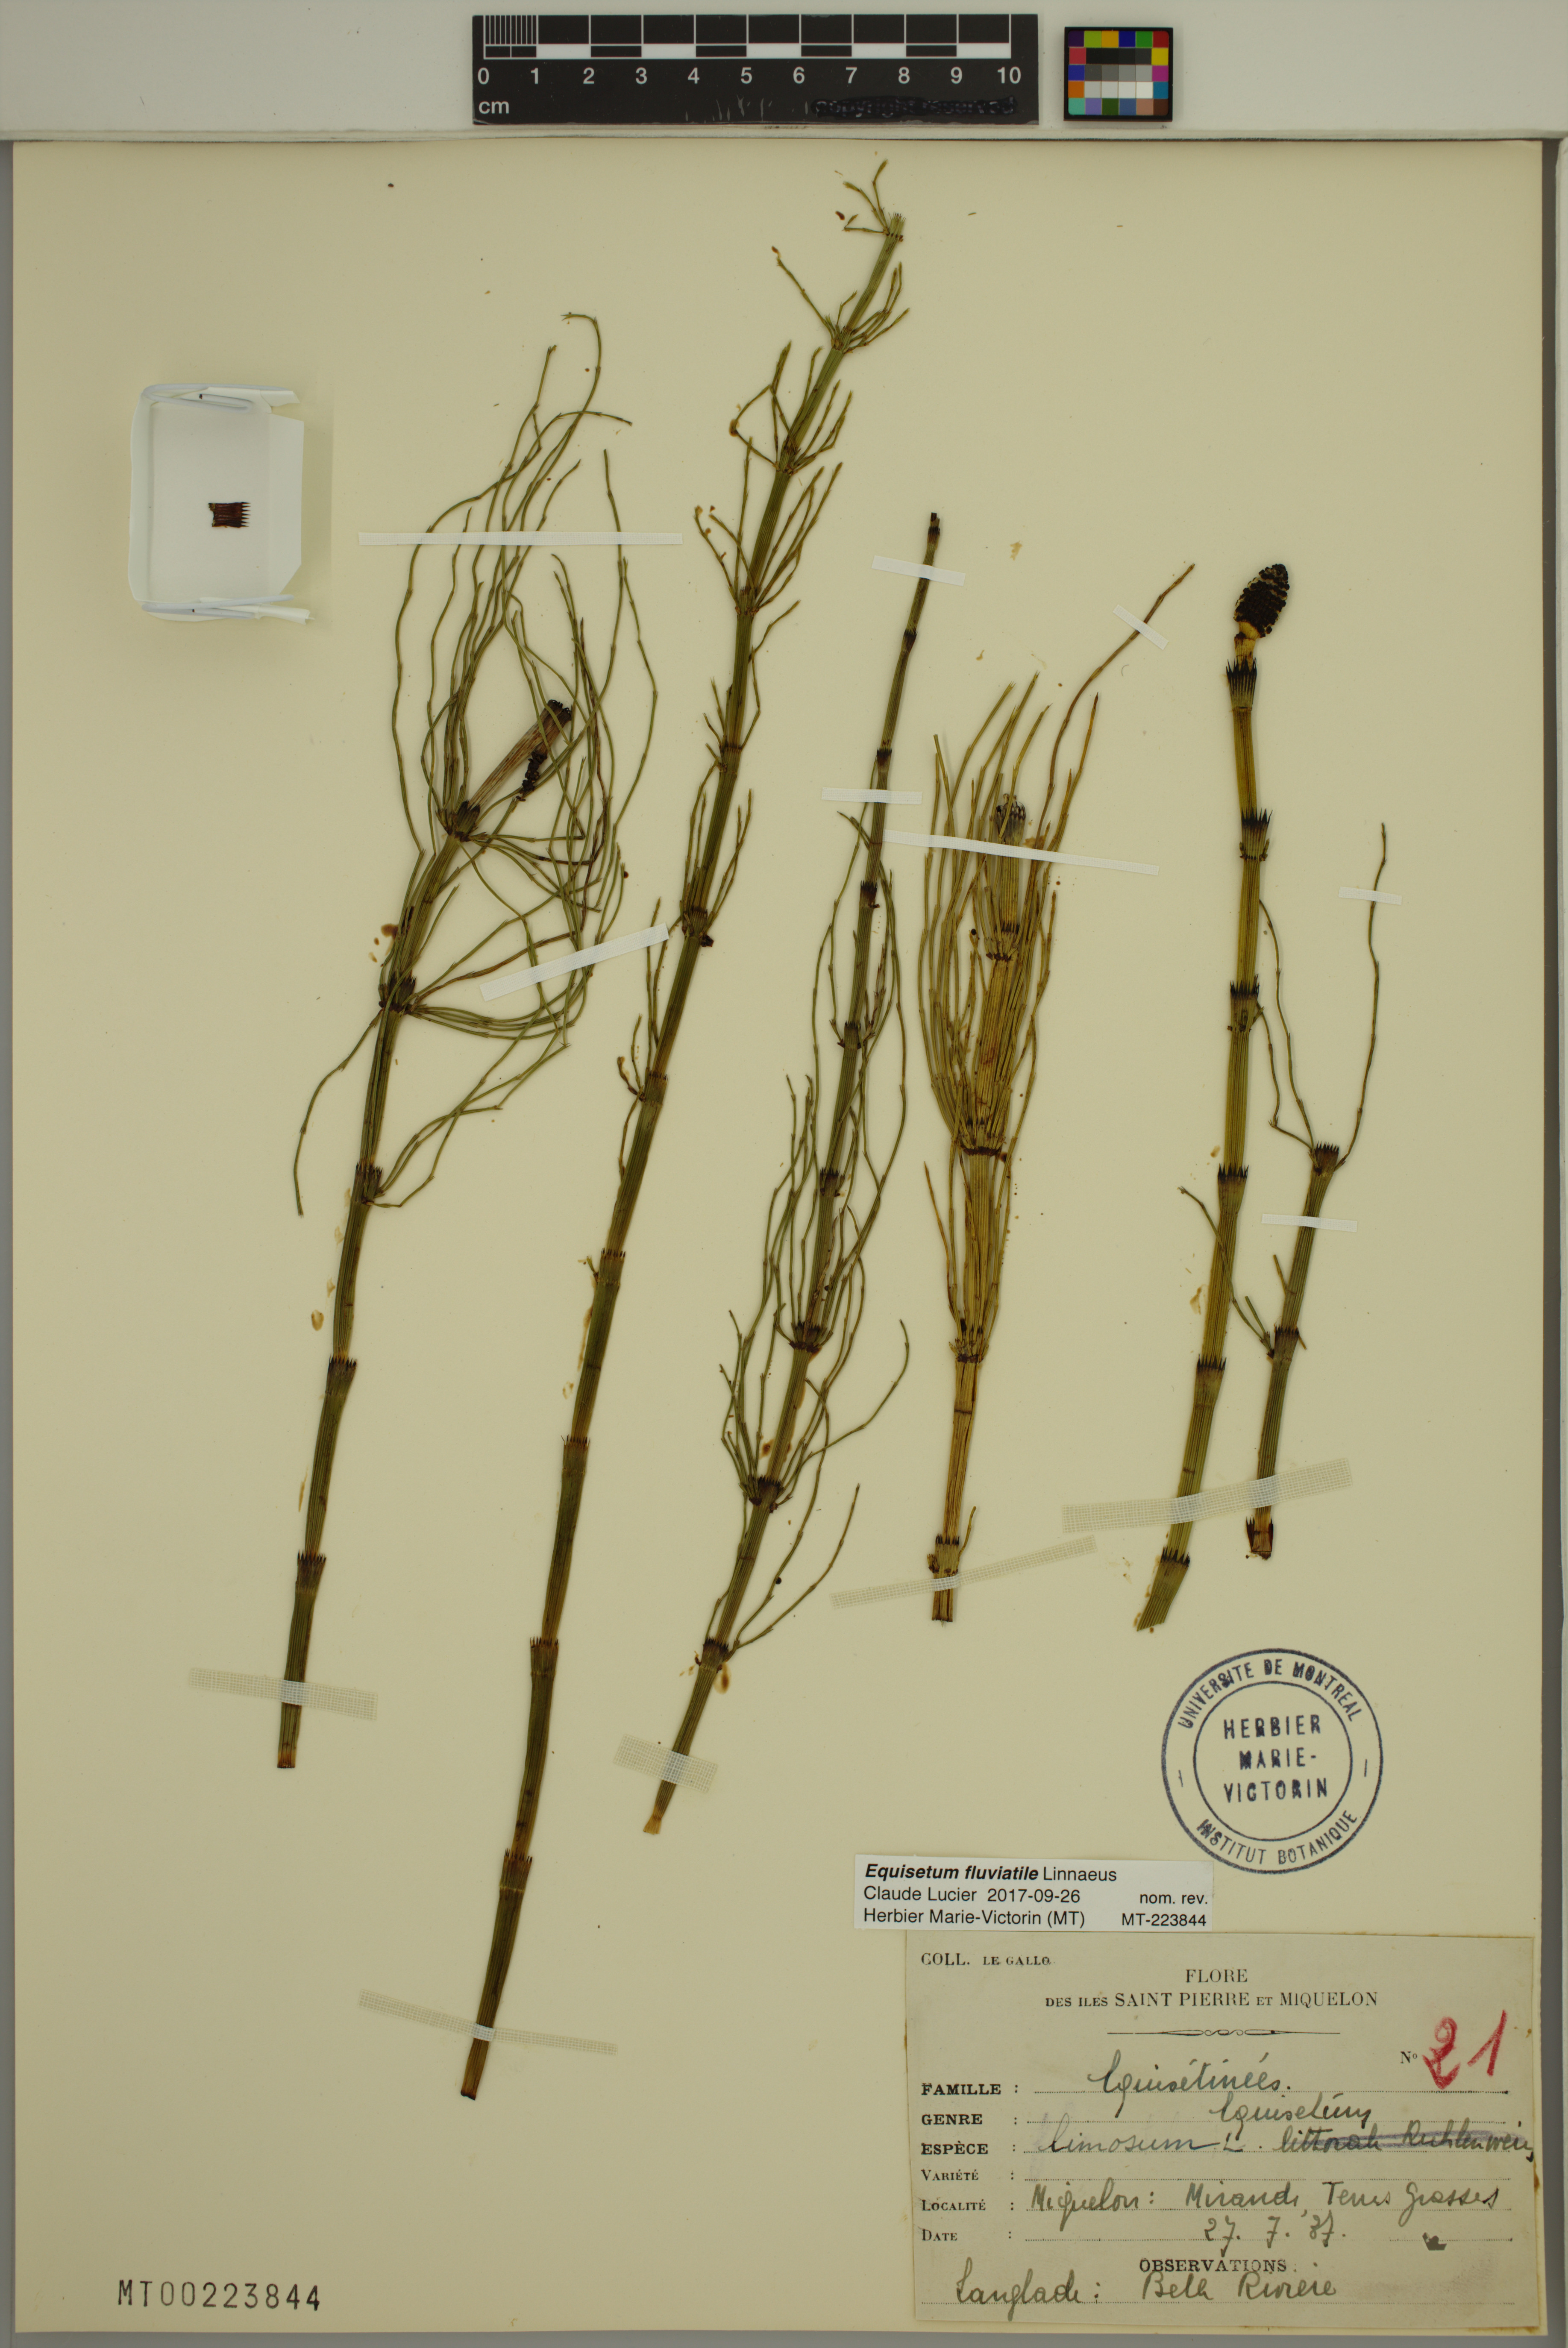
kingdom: Plantae
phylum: Tracheophyta
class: Polypodiopsida
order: Equisetales
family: Equisetaceae
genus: Equisetum
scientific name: Equisetum fluviatile
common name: Water horsetail
